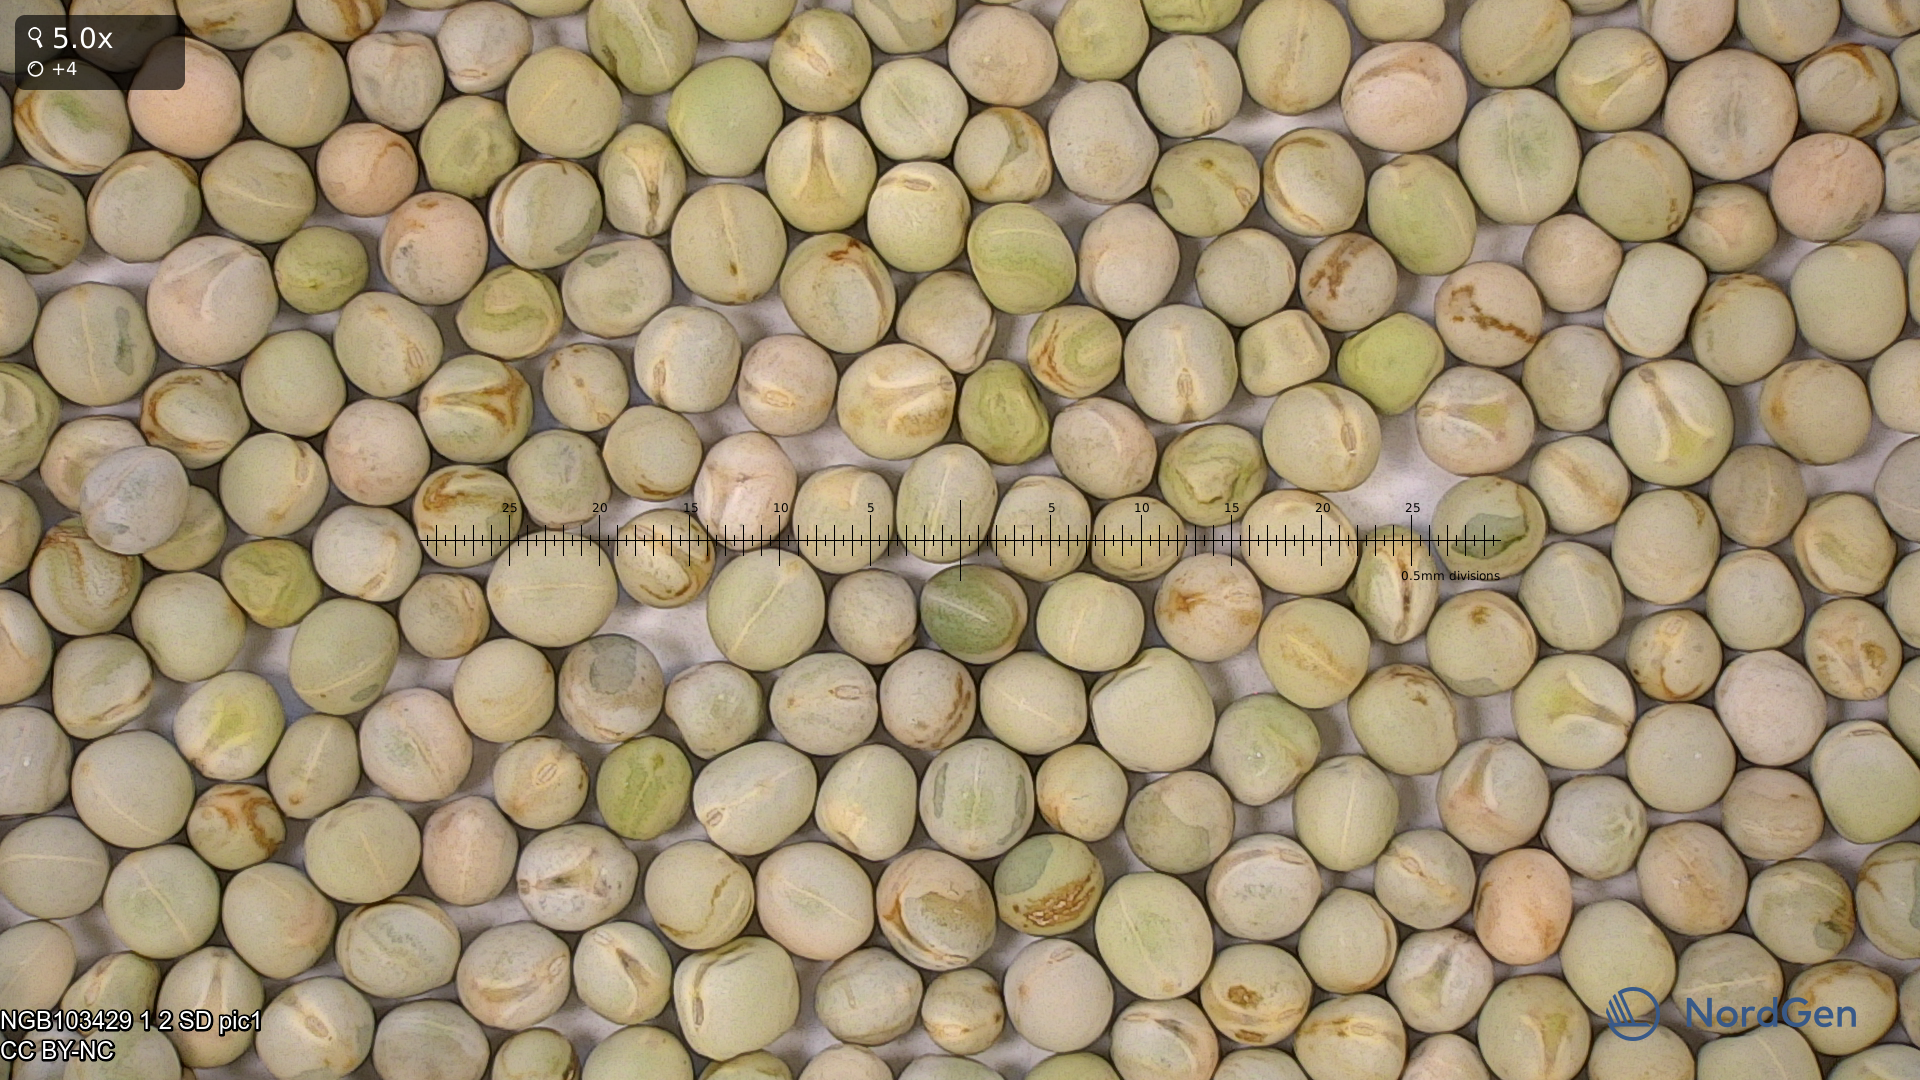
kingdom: Plantae
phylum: Tracheophyta
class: Magnoliopsida
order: Fabales
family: Fabaceae
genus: Lathyrus
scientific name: Lathyrus oleraceus
